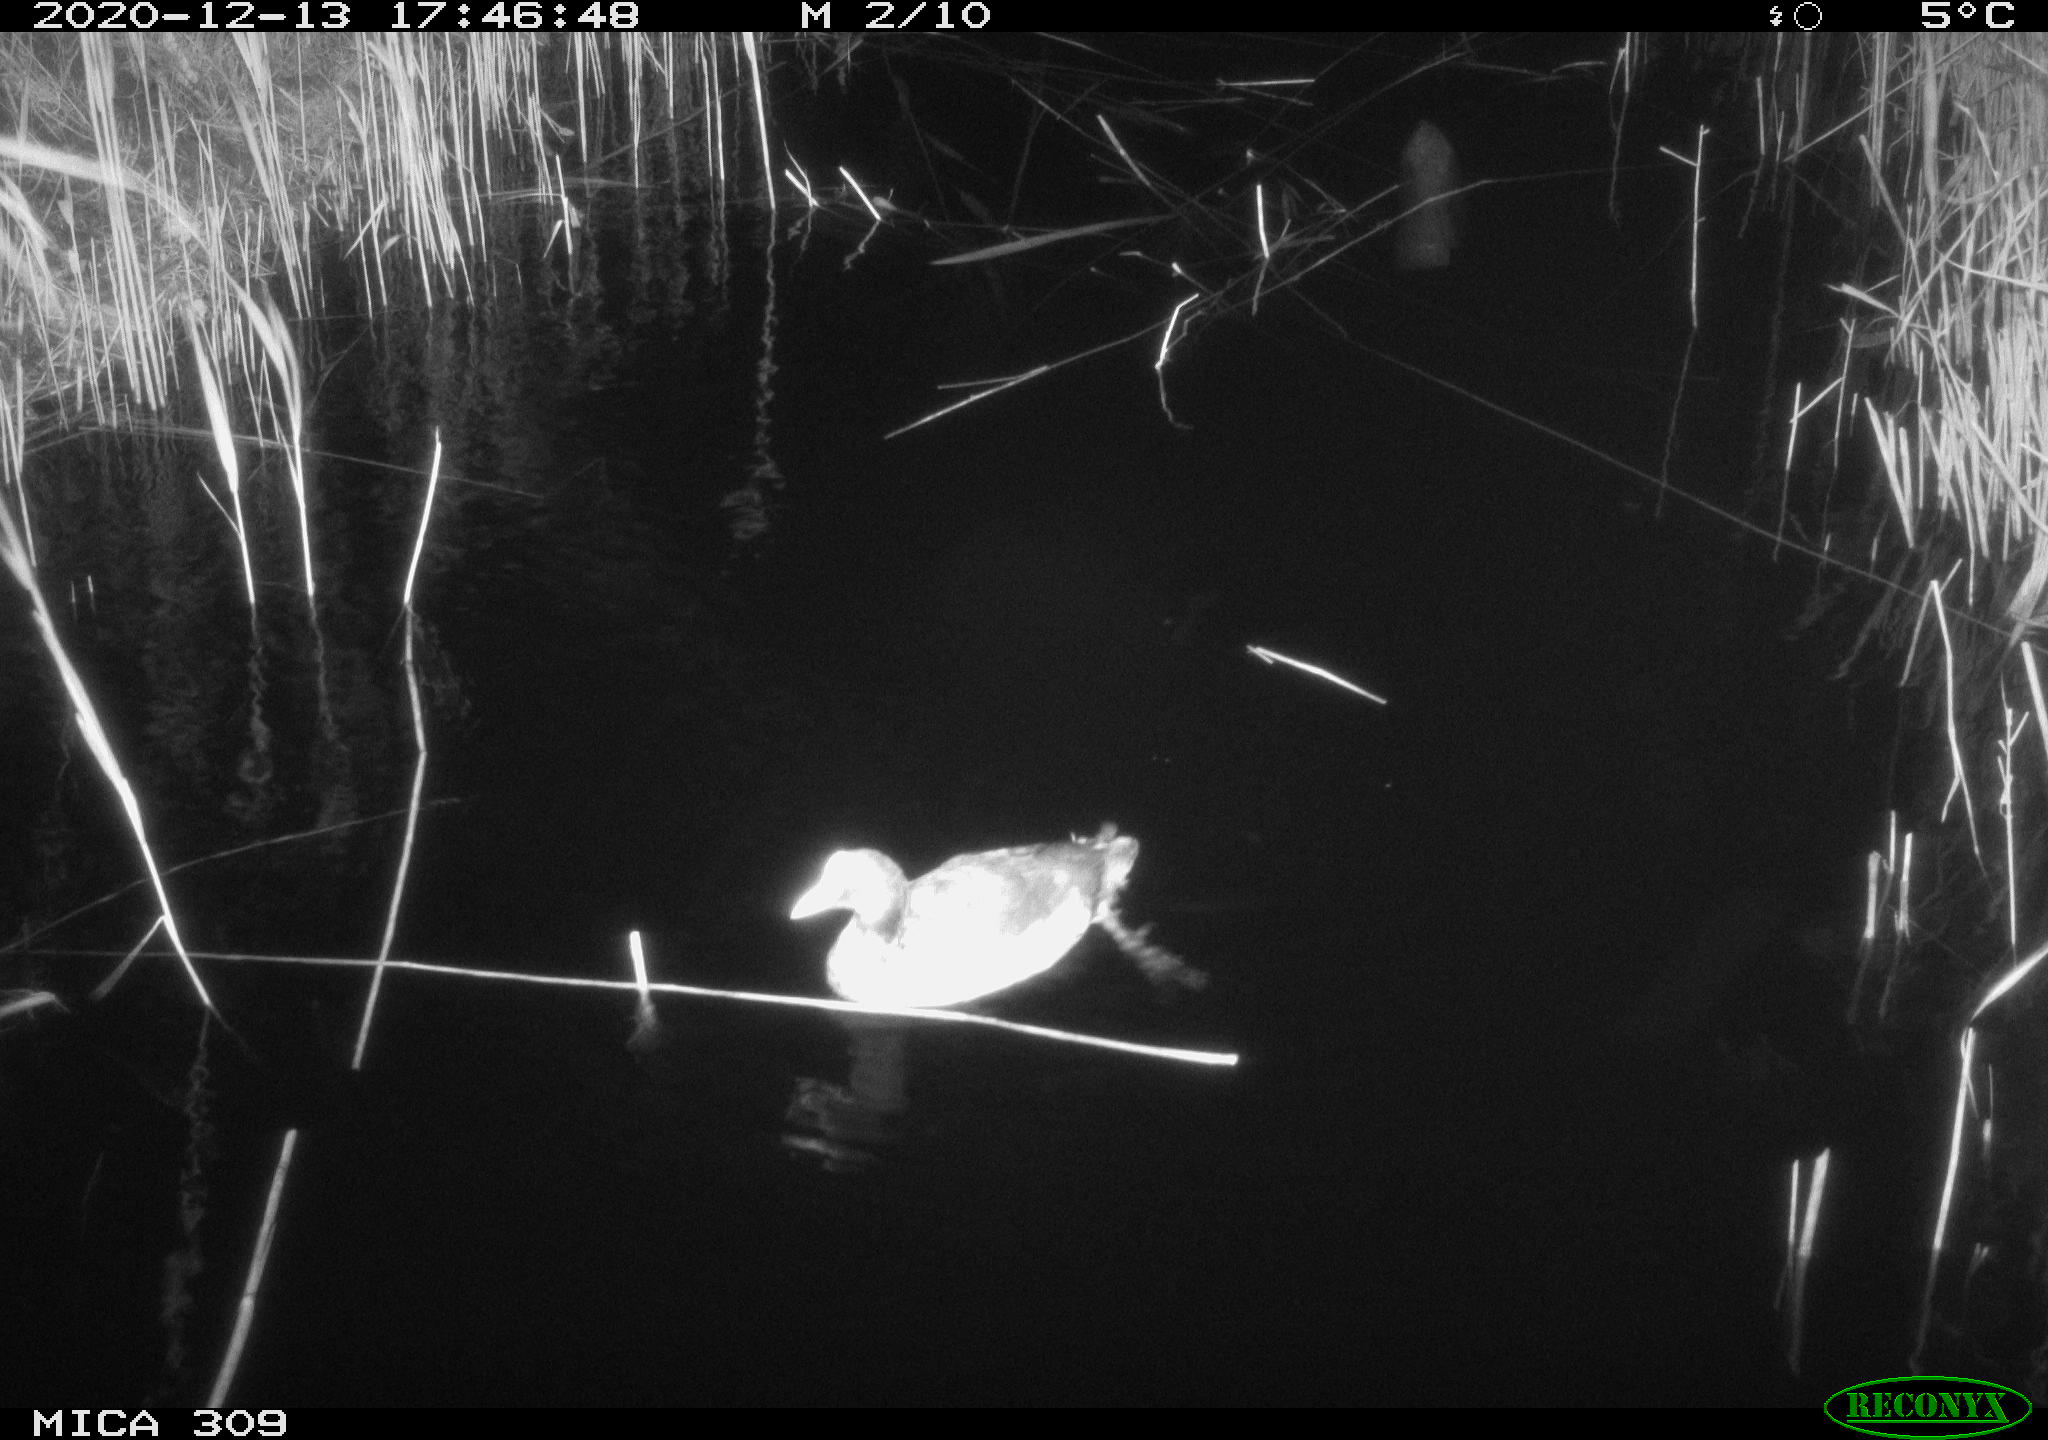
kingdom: Animalia
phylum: Chordata
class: Aves
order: Gruiformes
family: Rallidae
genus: Gallinula
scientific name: Gallinula chloropus
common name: Common moorhen
